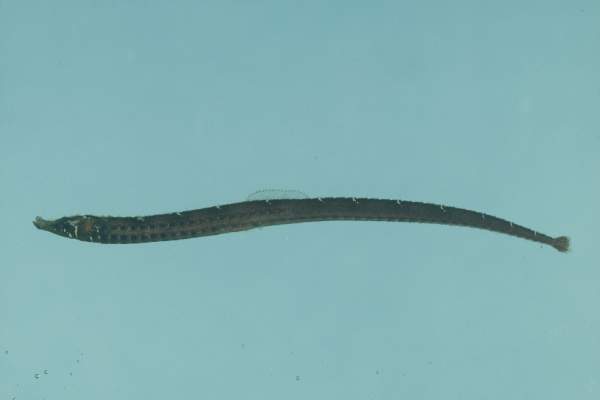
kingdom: Animalia
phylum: Chordata
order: Syngnathiformes
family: Syngnathidae
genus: Phoxocampus
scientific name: Phoxocampus belcheri
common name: Black rock pipefish
